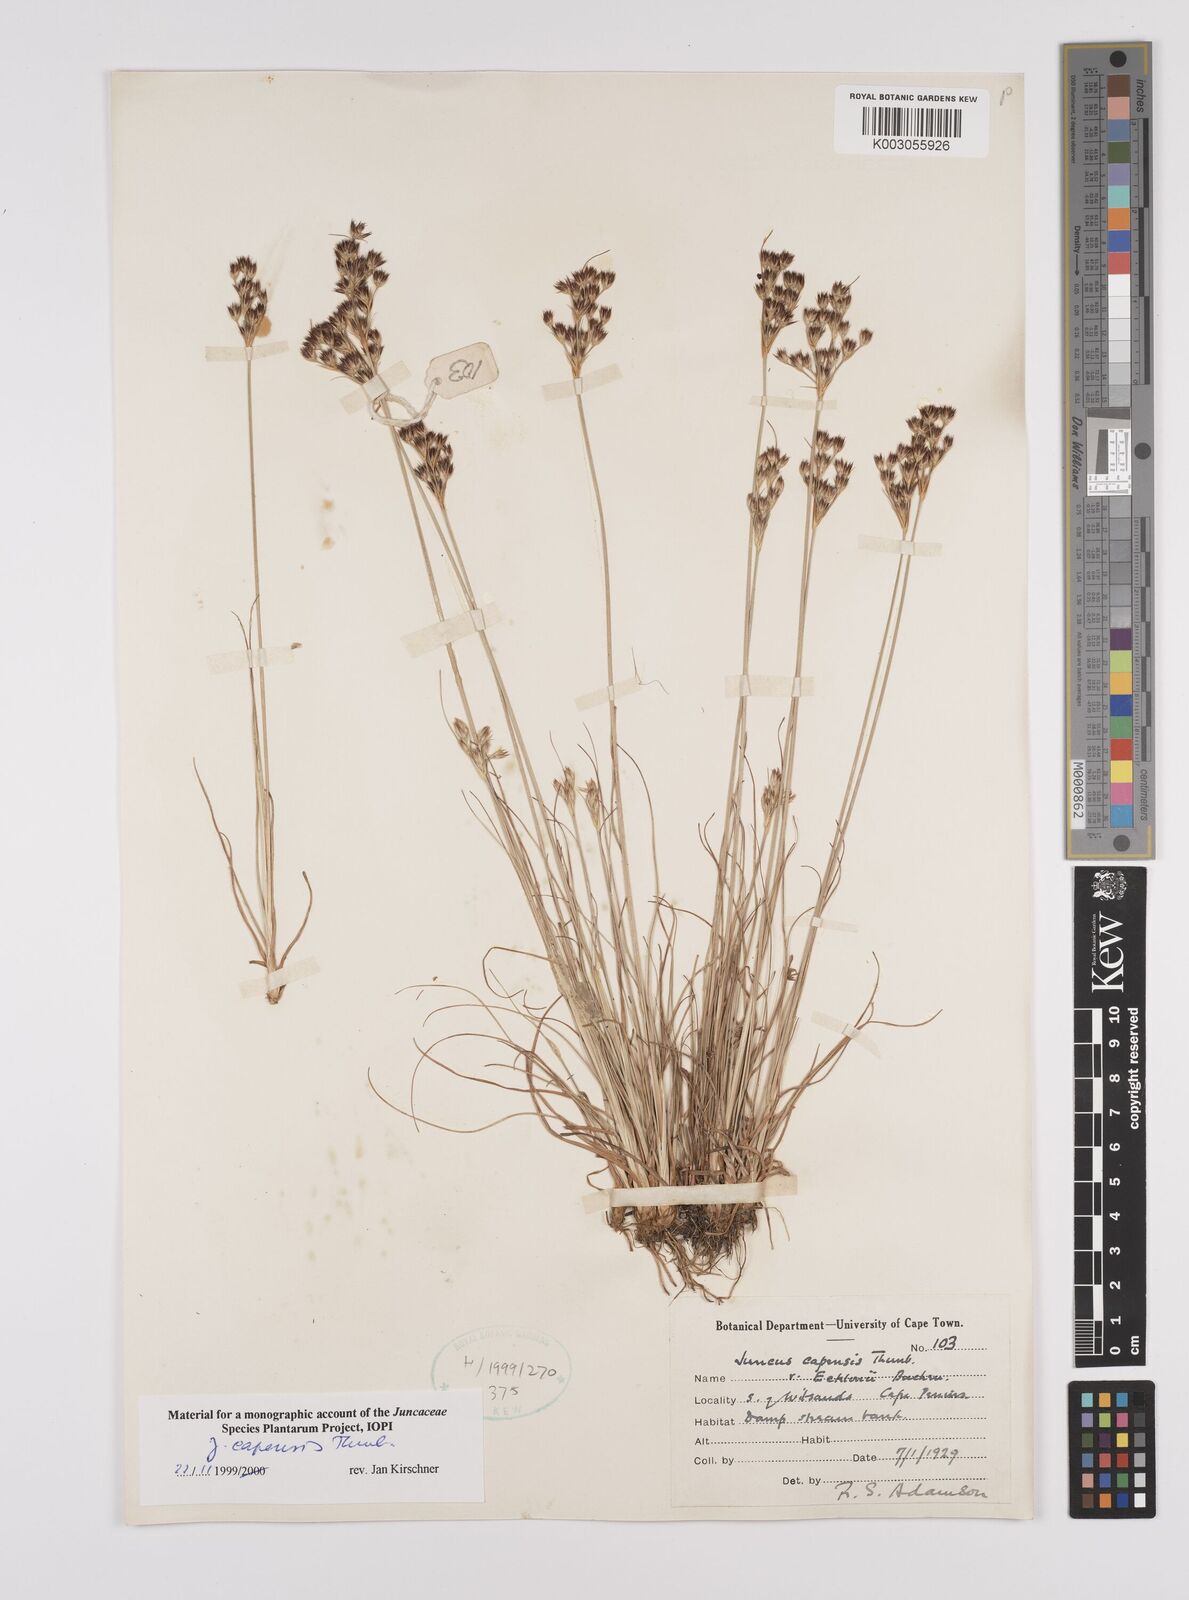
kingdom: Plantae
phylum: Tracheophyta
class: Liliopsida
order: Poales
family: Juncaceae
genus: Juncus
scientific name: Juncus capensis
